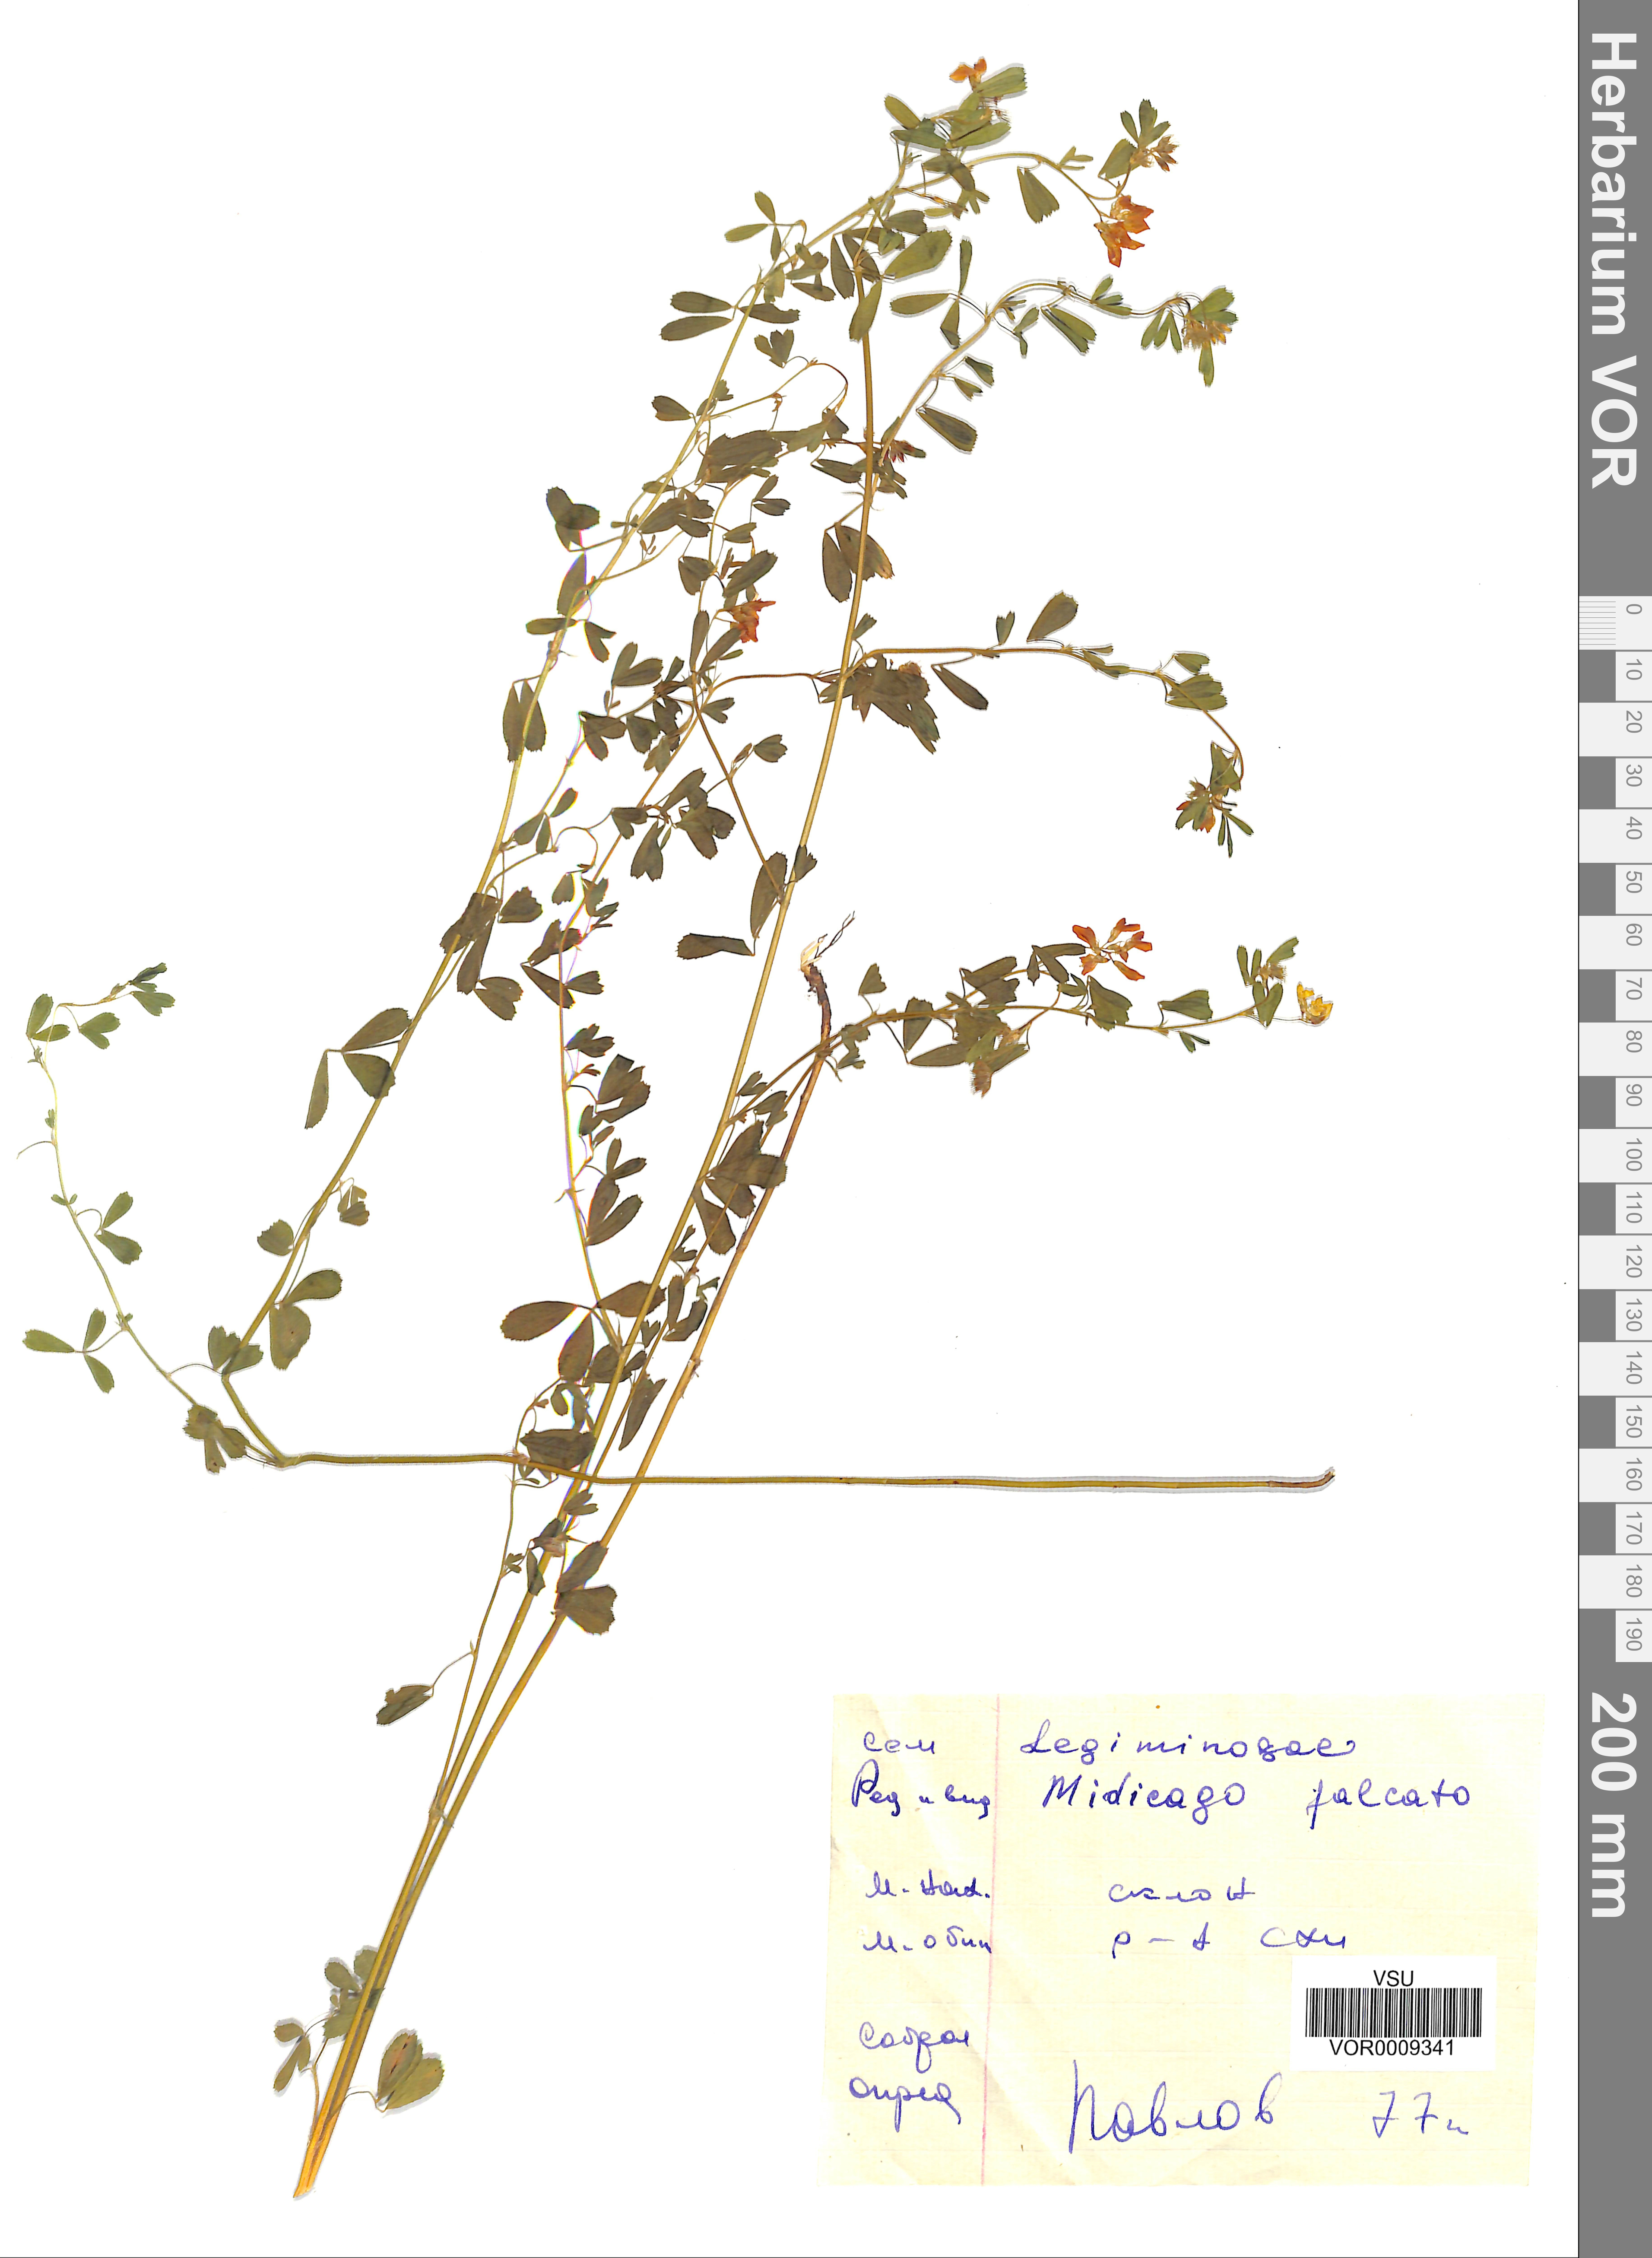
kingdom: Plantae
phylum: Tracheophyta
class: Magnoliopsida
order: Fabales
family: Fabaceae
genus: Medicago
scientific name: Medicago falcata
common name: Sickle medick
